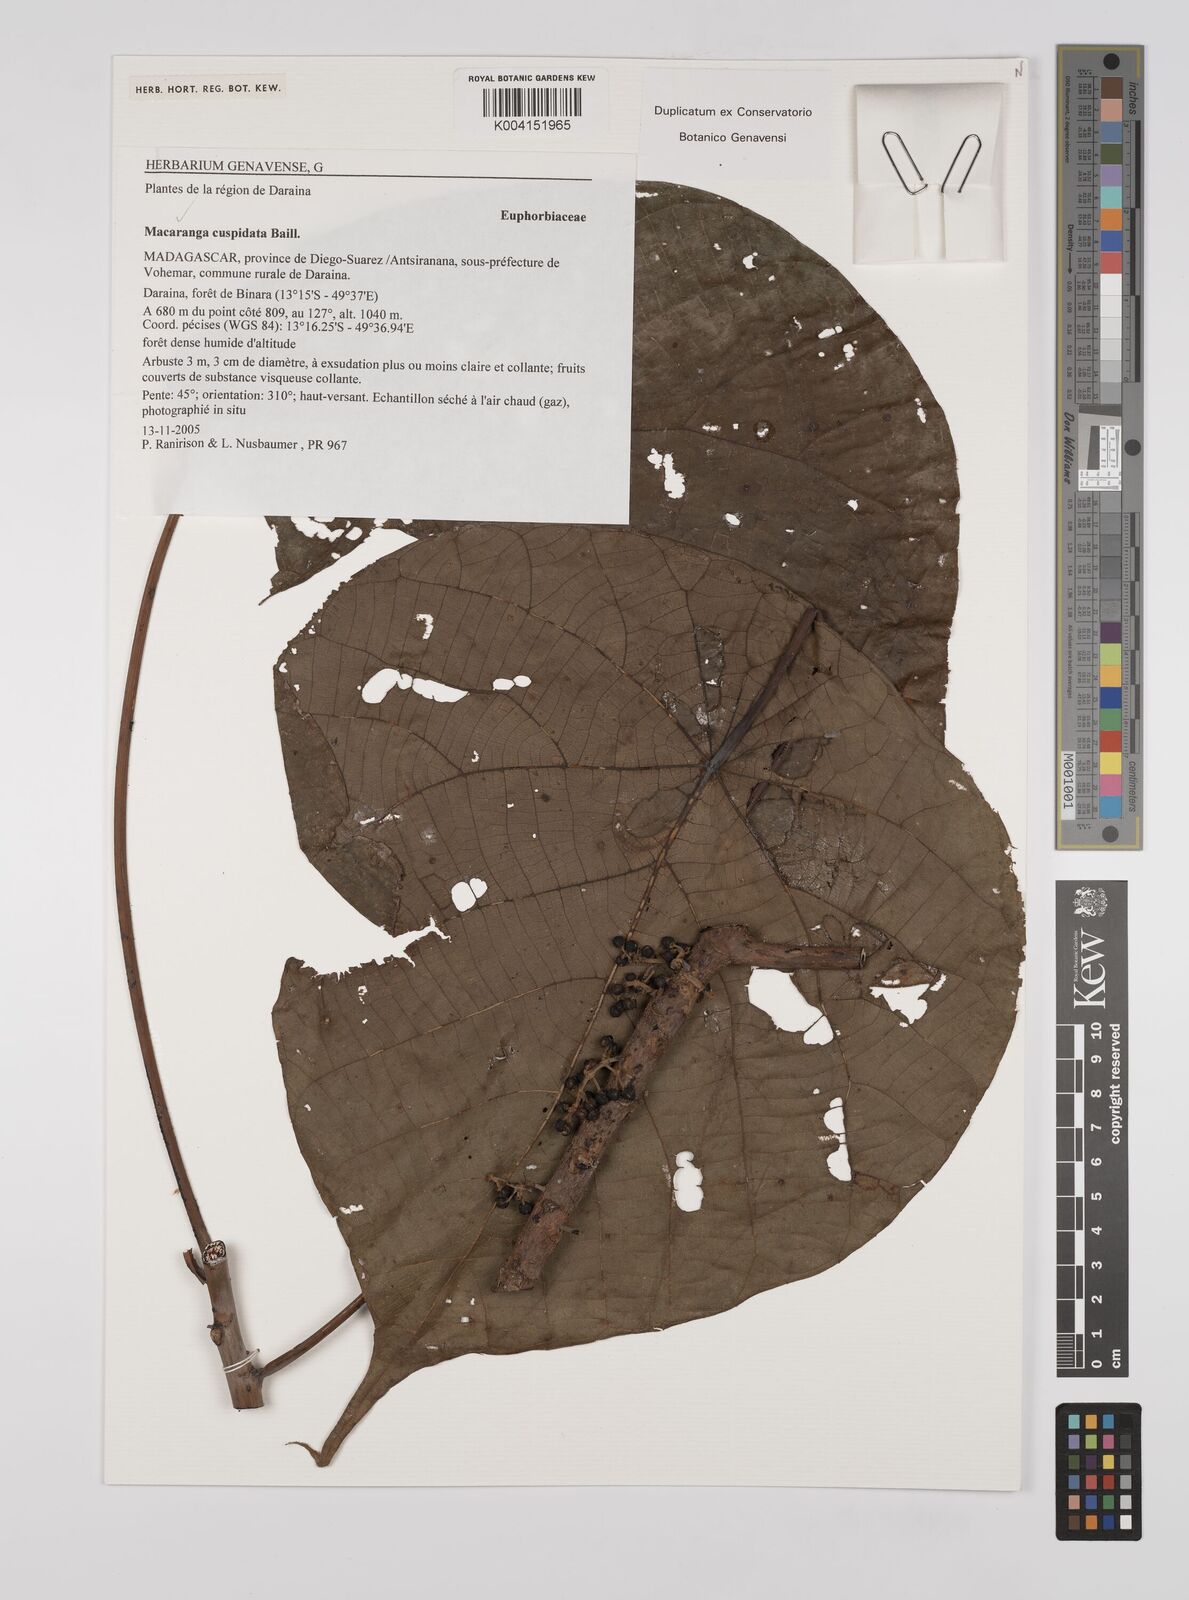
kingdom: Plantae
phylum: Tracheophyta
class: Magnoliopsida
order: Malpighiales
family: Euphorbiaceae
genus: Macaranga
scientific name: Macaranga cuspidata
